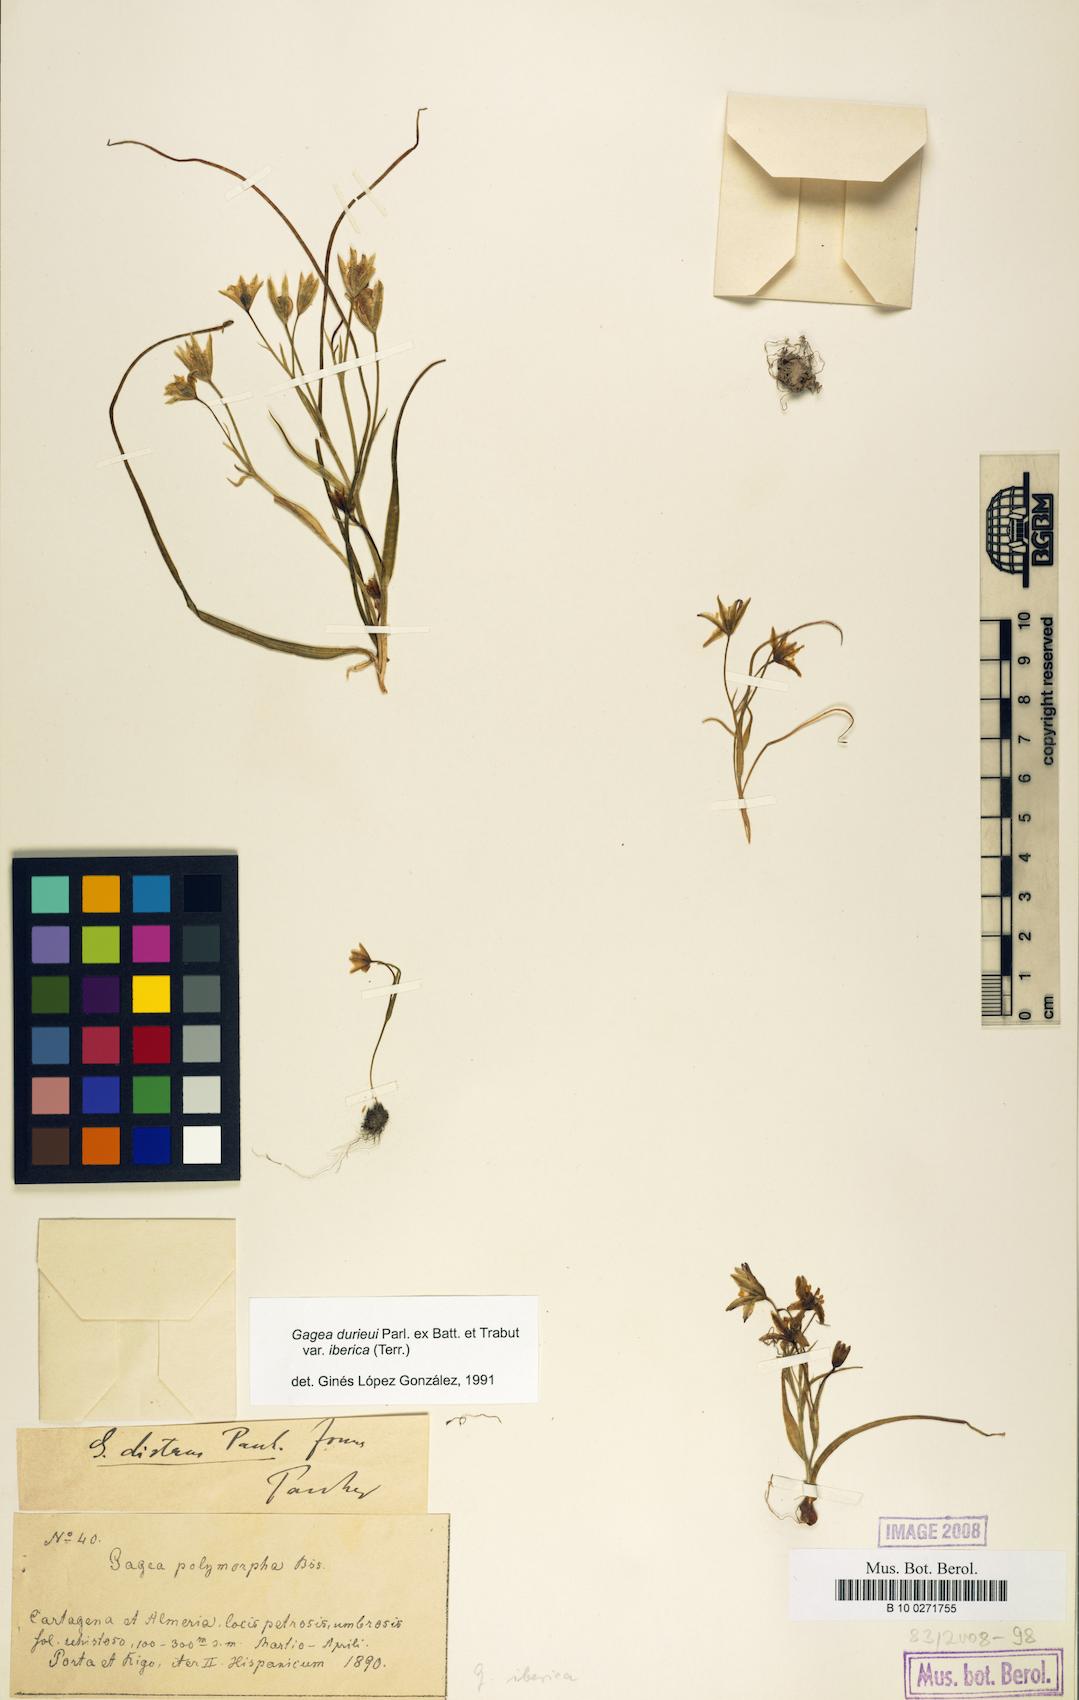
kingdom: Plantae
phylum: Tracheophyta
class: Liliopsida
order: Liliales
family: Liliaceae
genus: Gagea
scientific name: Gagea durieui
